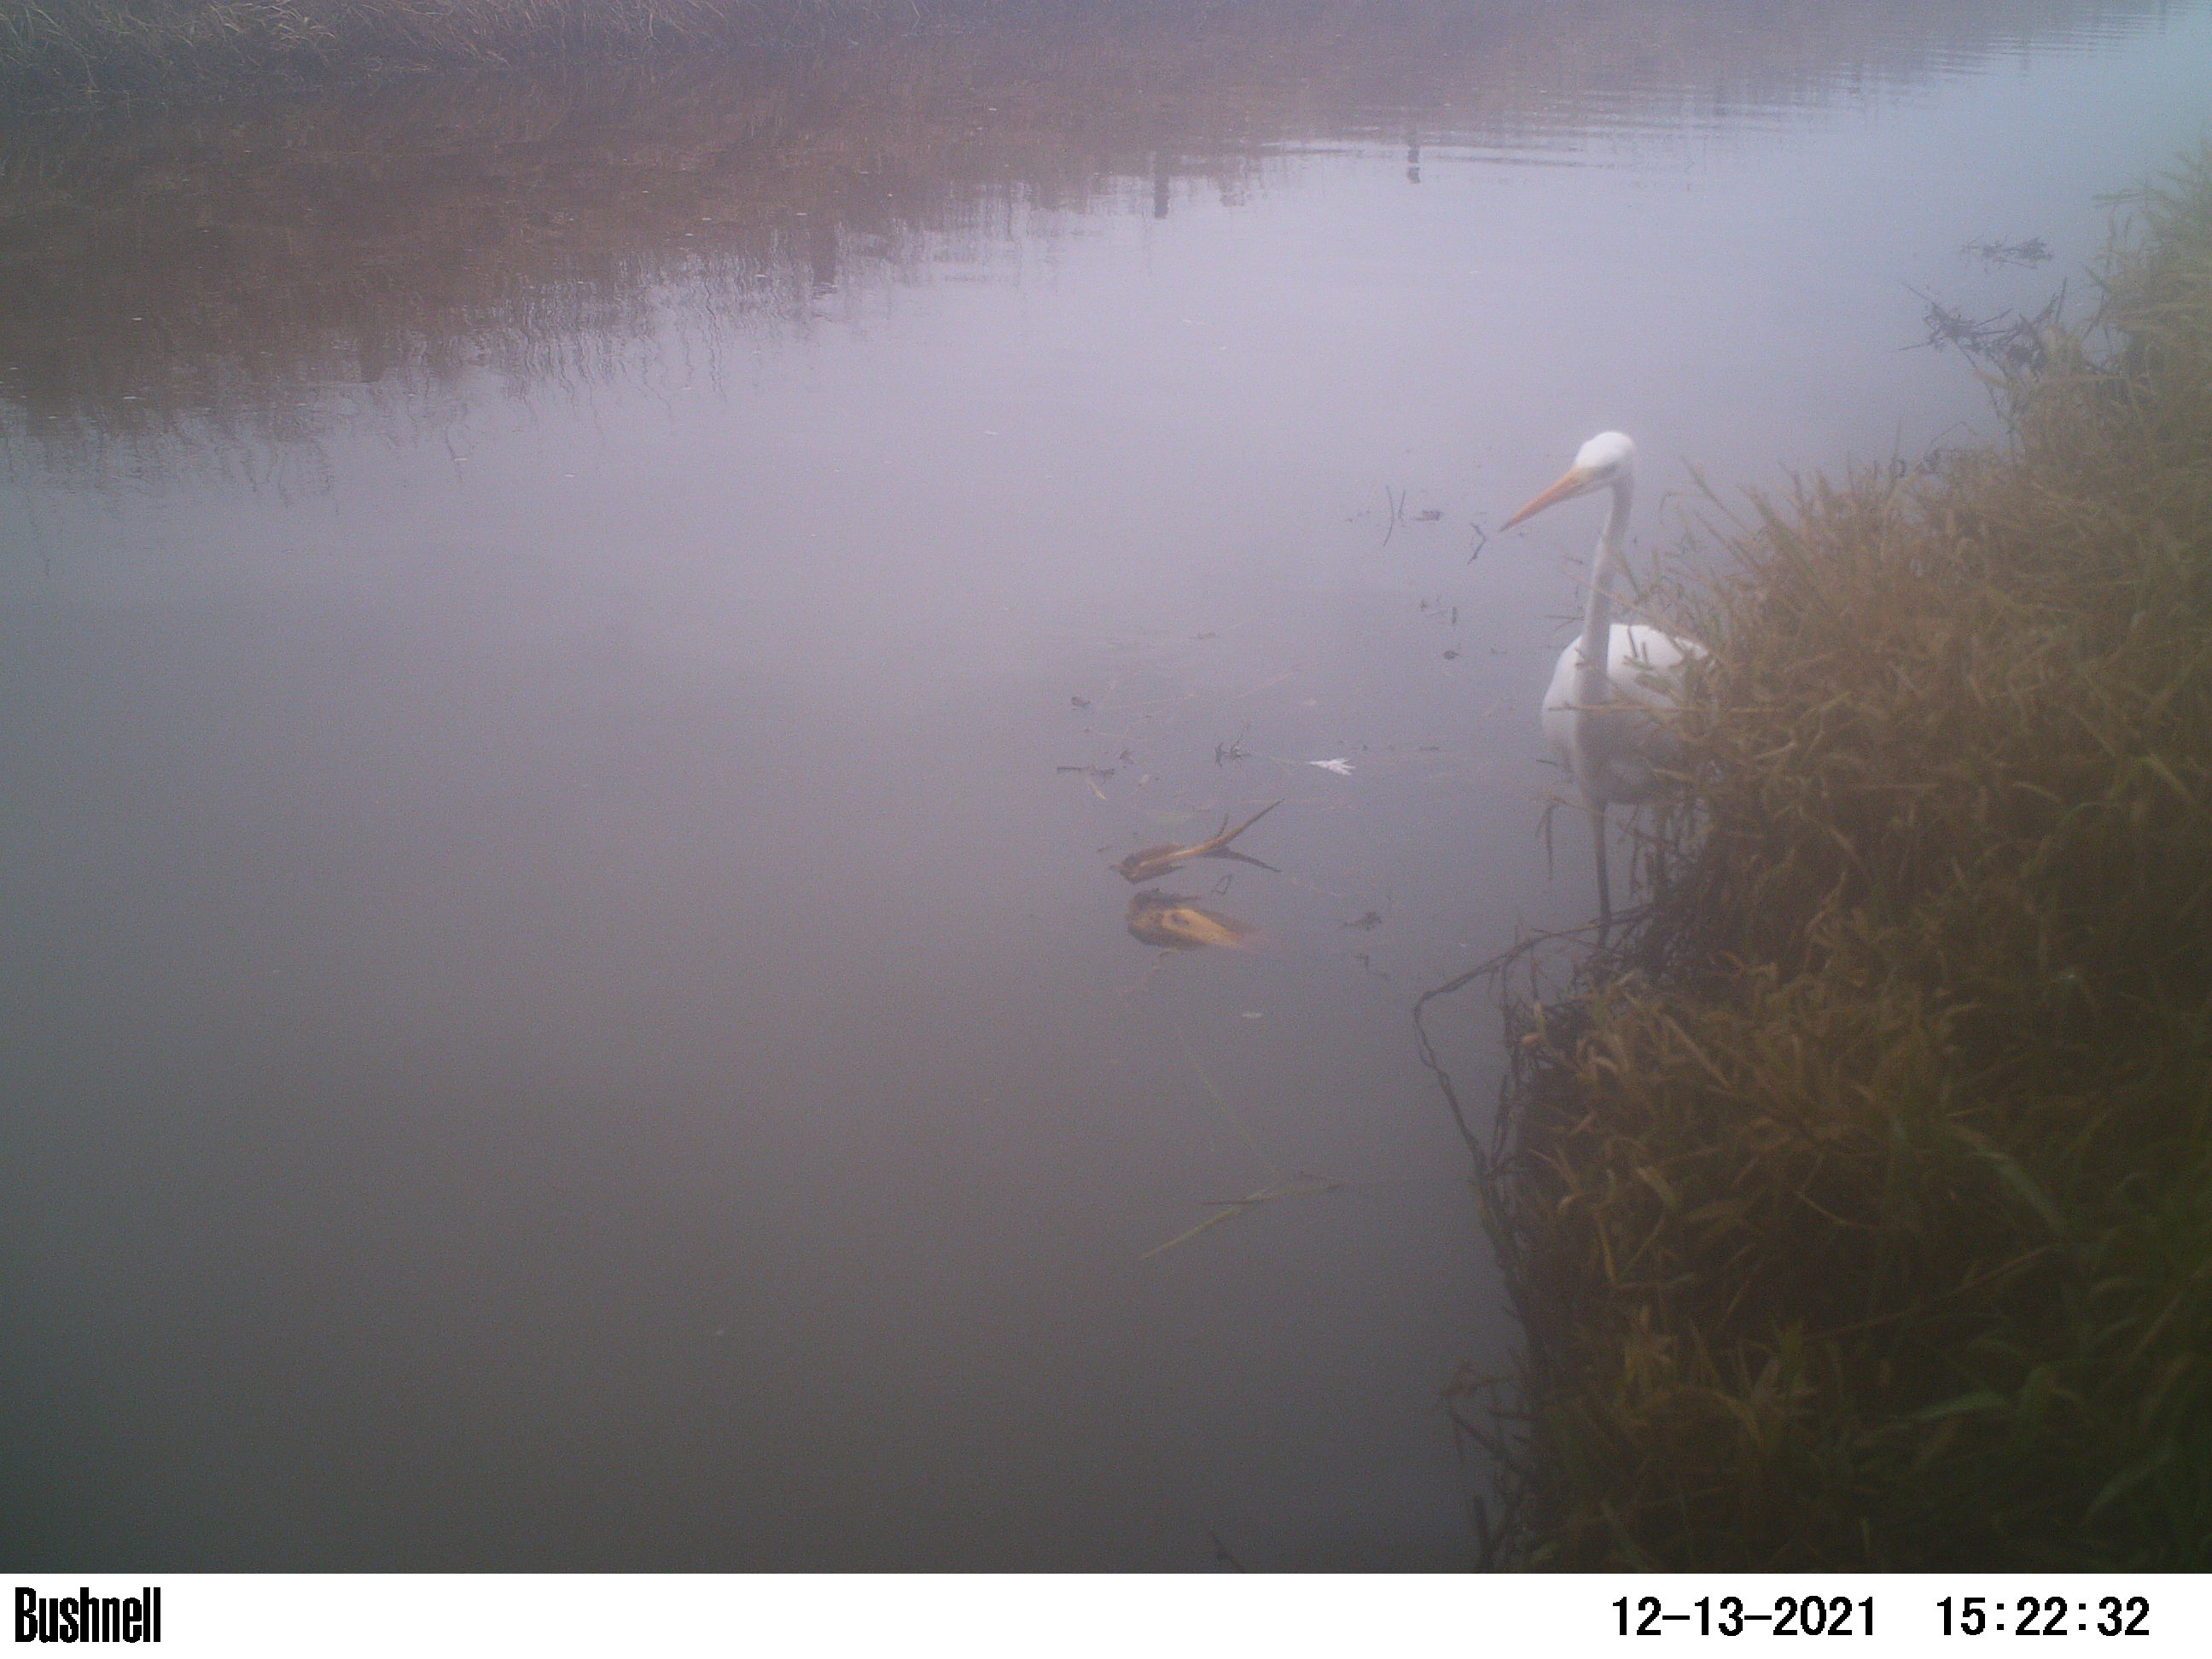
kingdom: Animalia
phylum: Chordata
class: Aves
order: Pelecaniformes
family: Ardeidae
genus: Ardea
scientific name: Ardea alba
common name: Great egret
